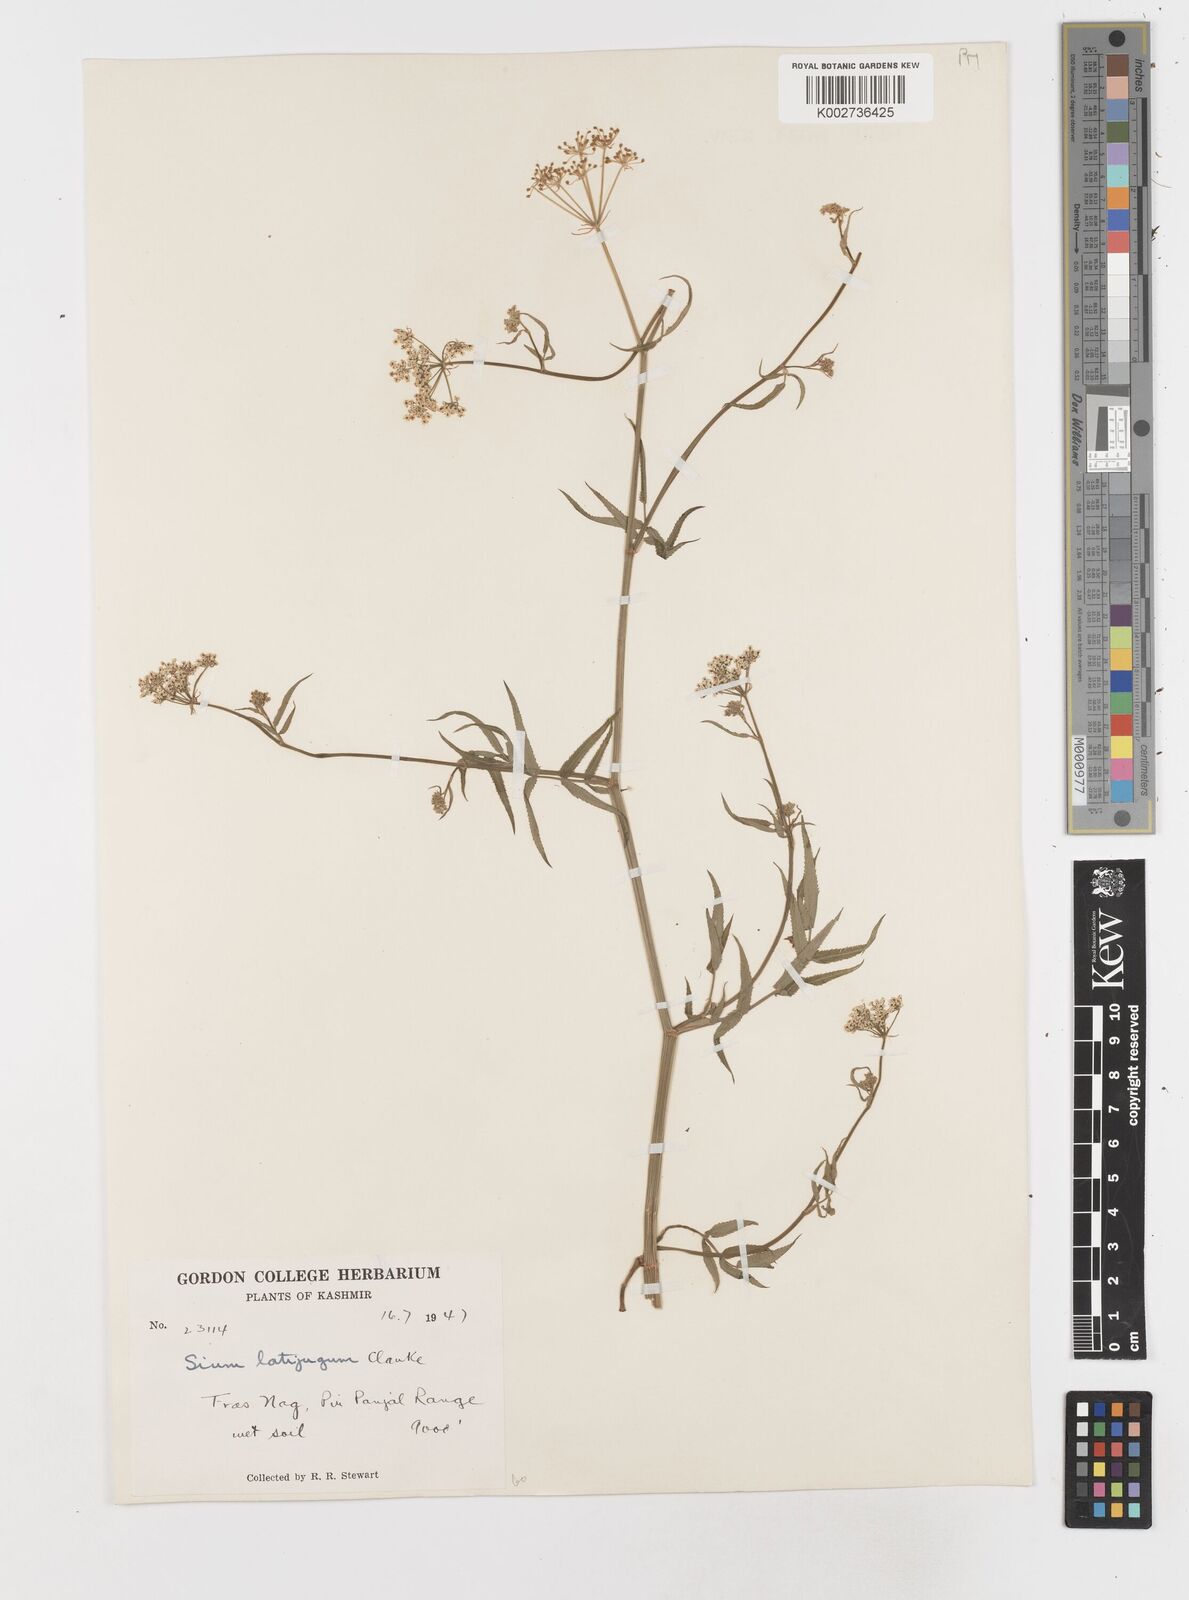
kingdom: Plantae
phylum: Tracheophyta
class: Magnoliopsida
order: Apiales
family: Apiaceae
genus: Sium
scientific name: Sium sisarum
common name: Skirret
